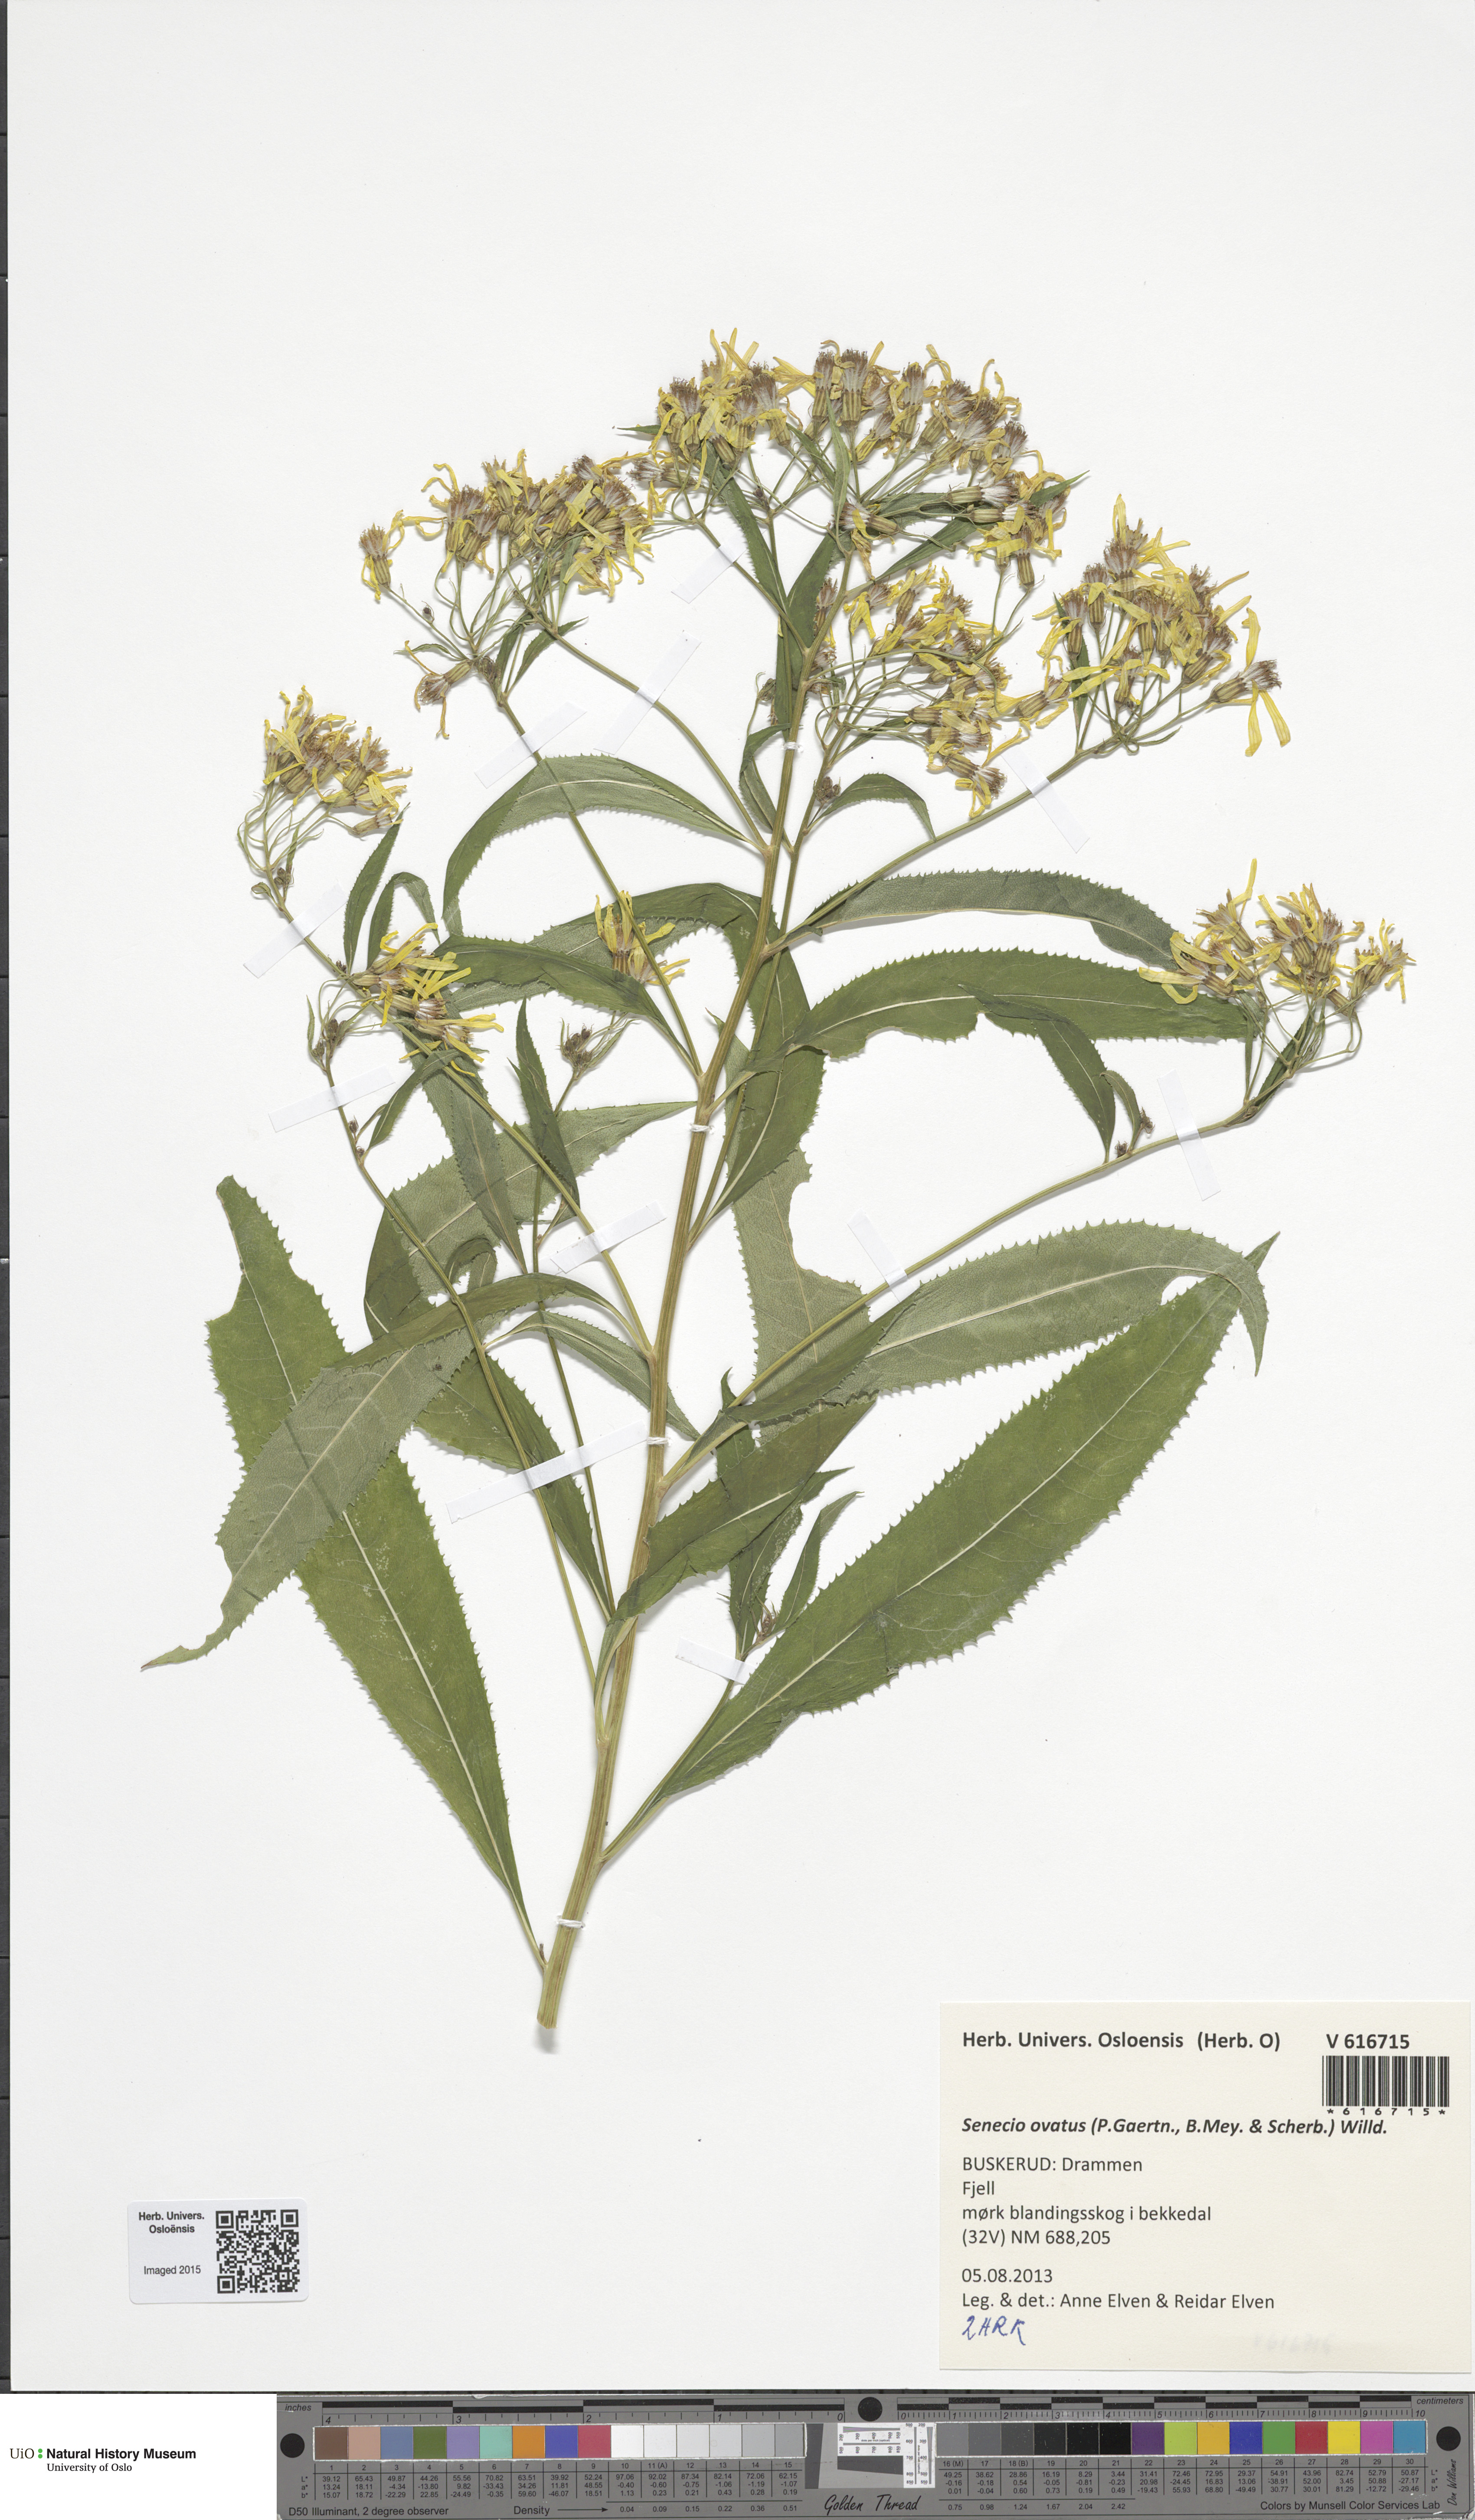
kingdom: Plantae
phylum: Tracheophyta
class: Magnoliopsida
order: Asterales
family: Asteraceae
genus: Senecio
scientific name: Senecio ovatus
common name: Wood ragwort
